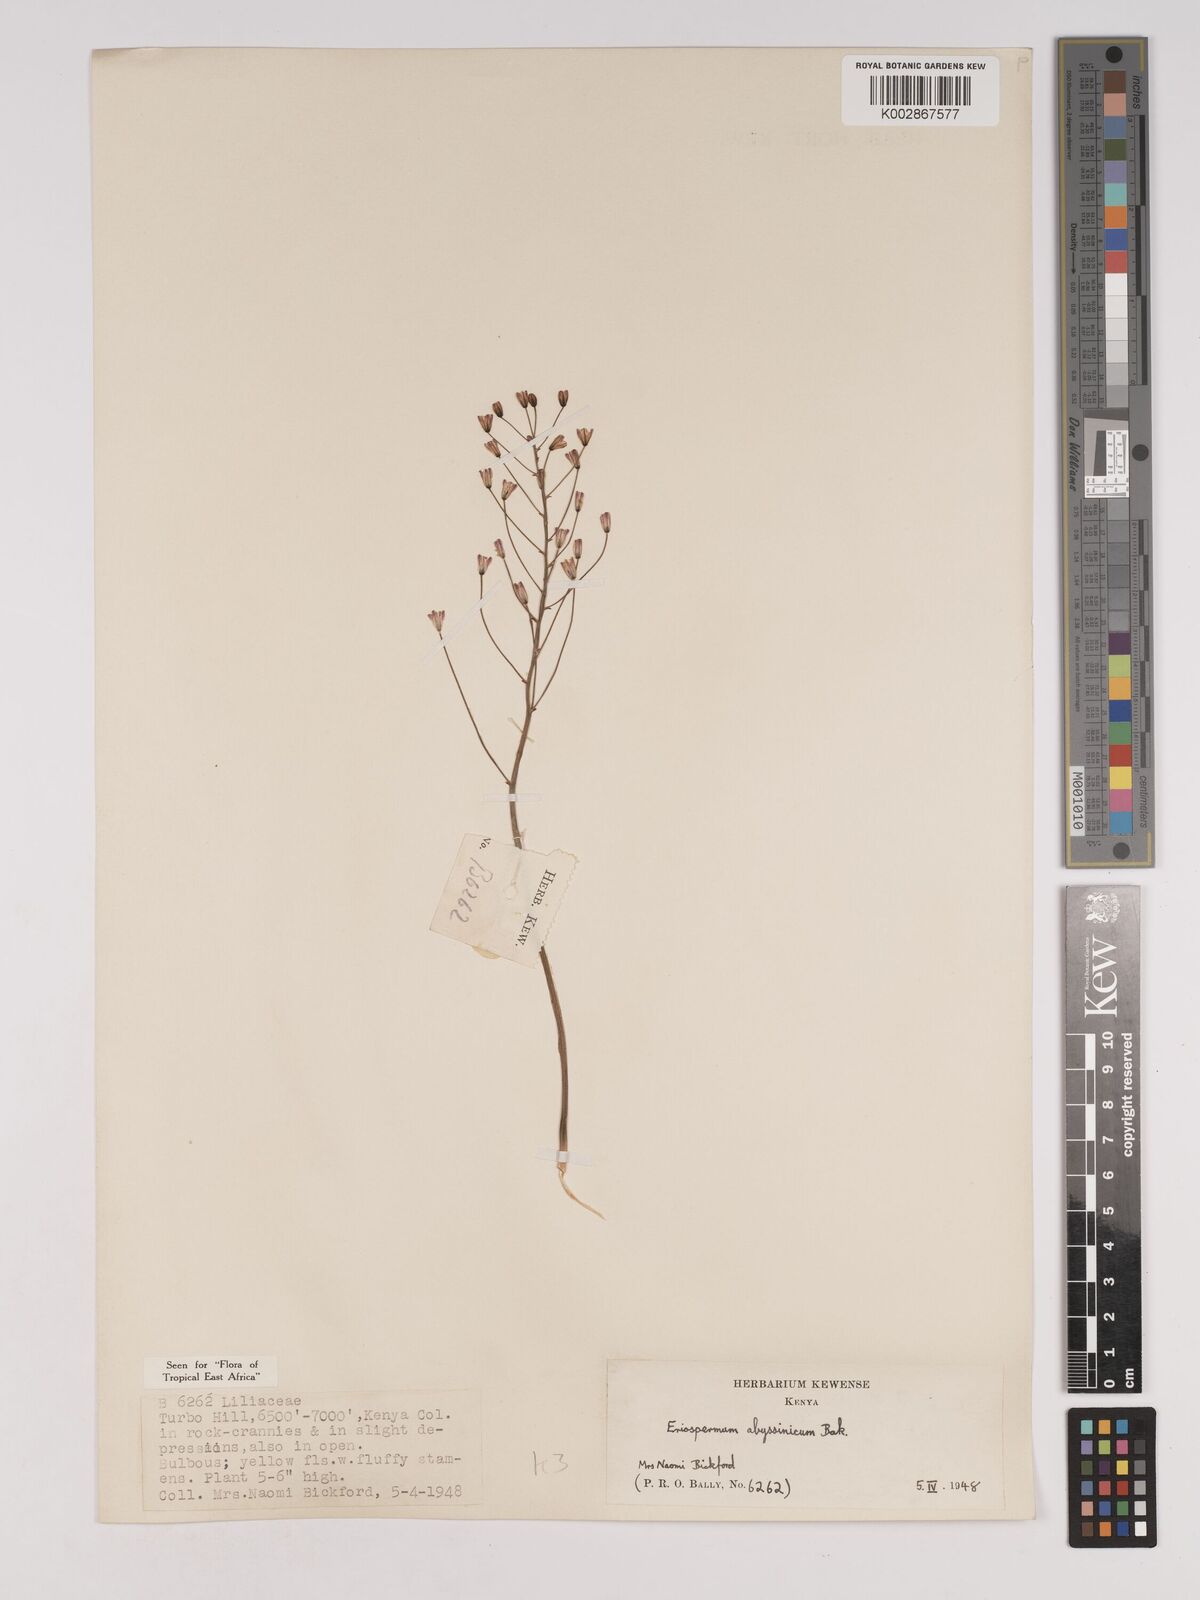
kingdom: Plantae
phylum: Tracheophyta
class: Liliopsida
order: Asparagales
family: Asparagaceae
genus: Eriospermum
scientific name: Eriospermum abyssinicum
